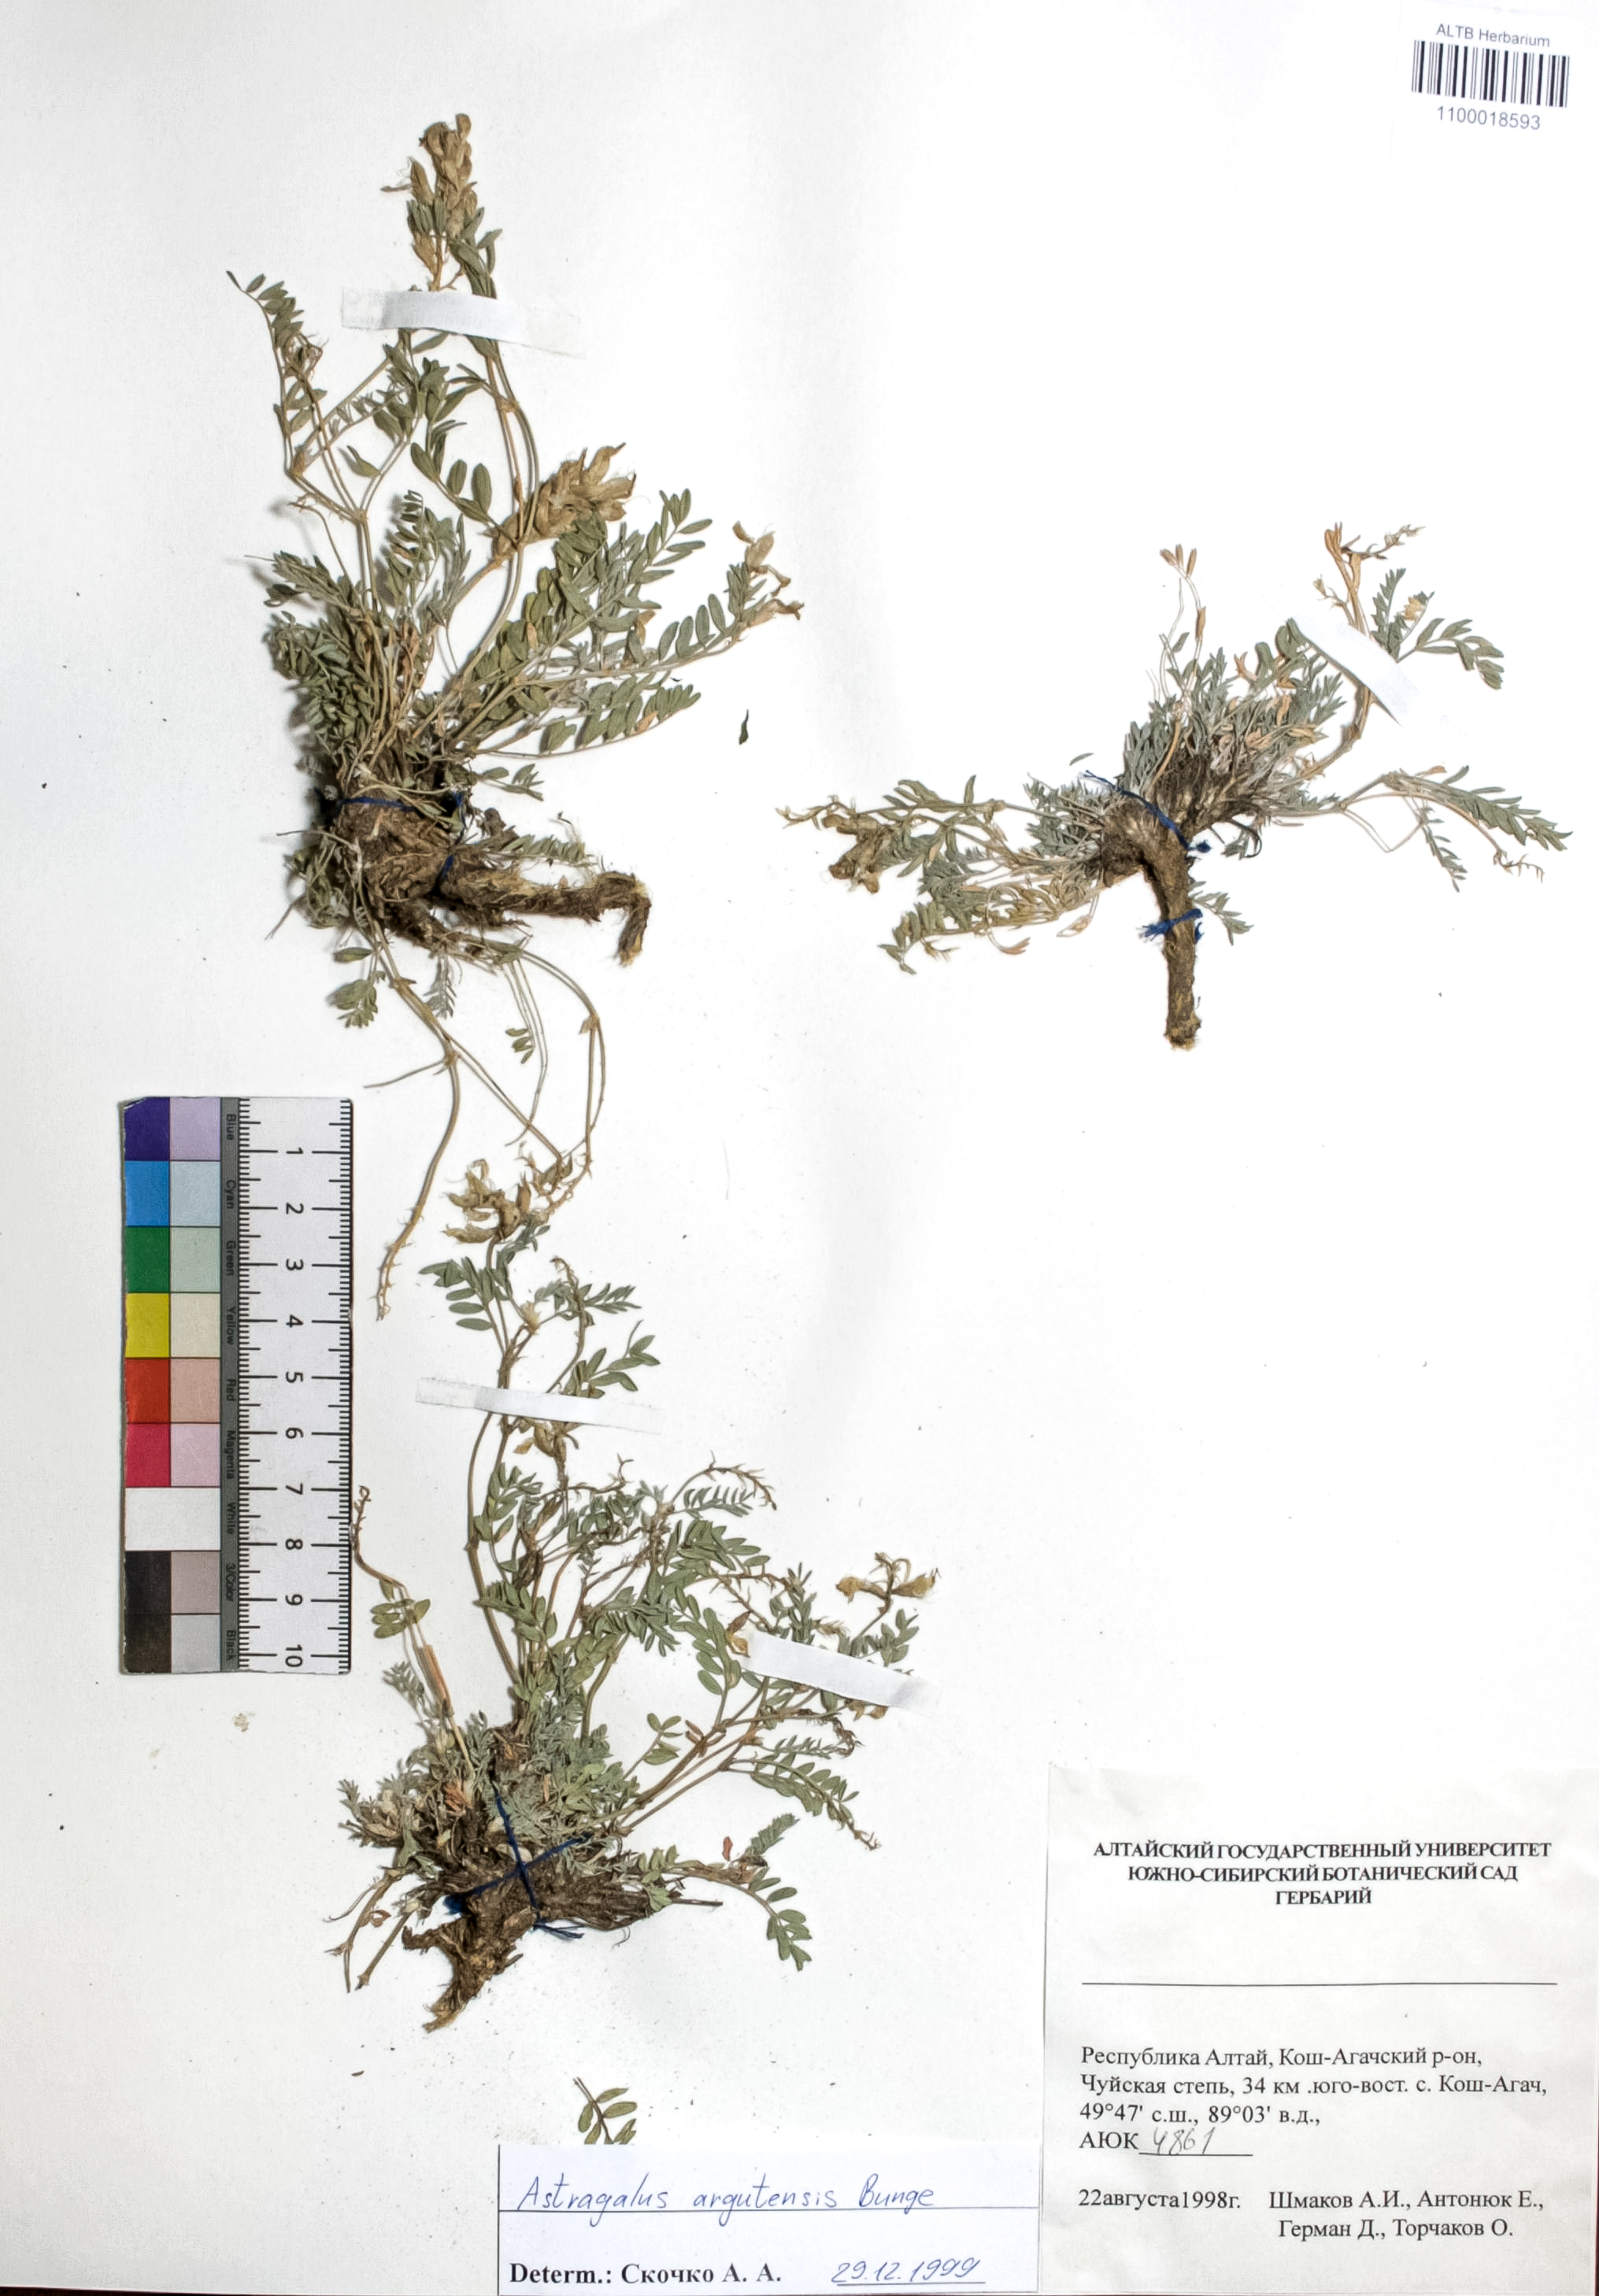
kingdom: Plantae
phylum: Tracheophyta
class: Magnoliopsida
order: Fabales
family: Fabaceae
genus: Astragalus
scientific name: Astragalus argutensis
